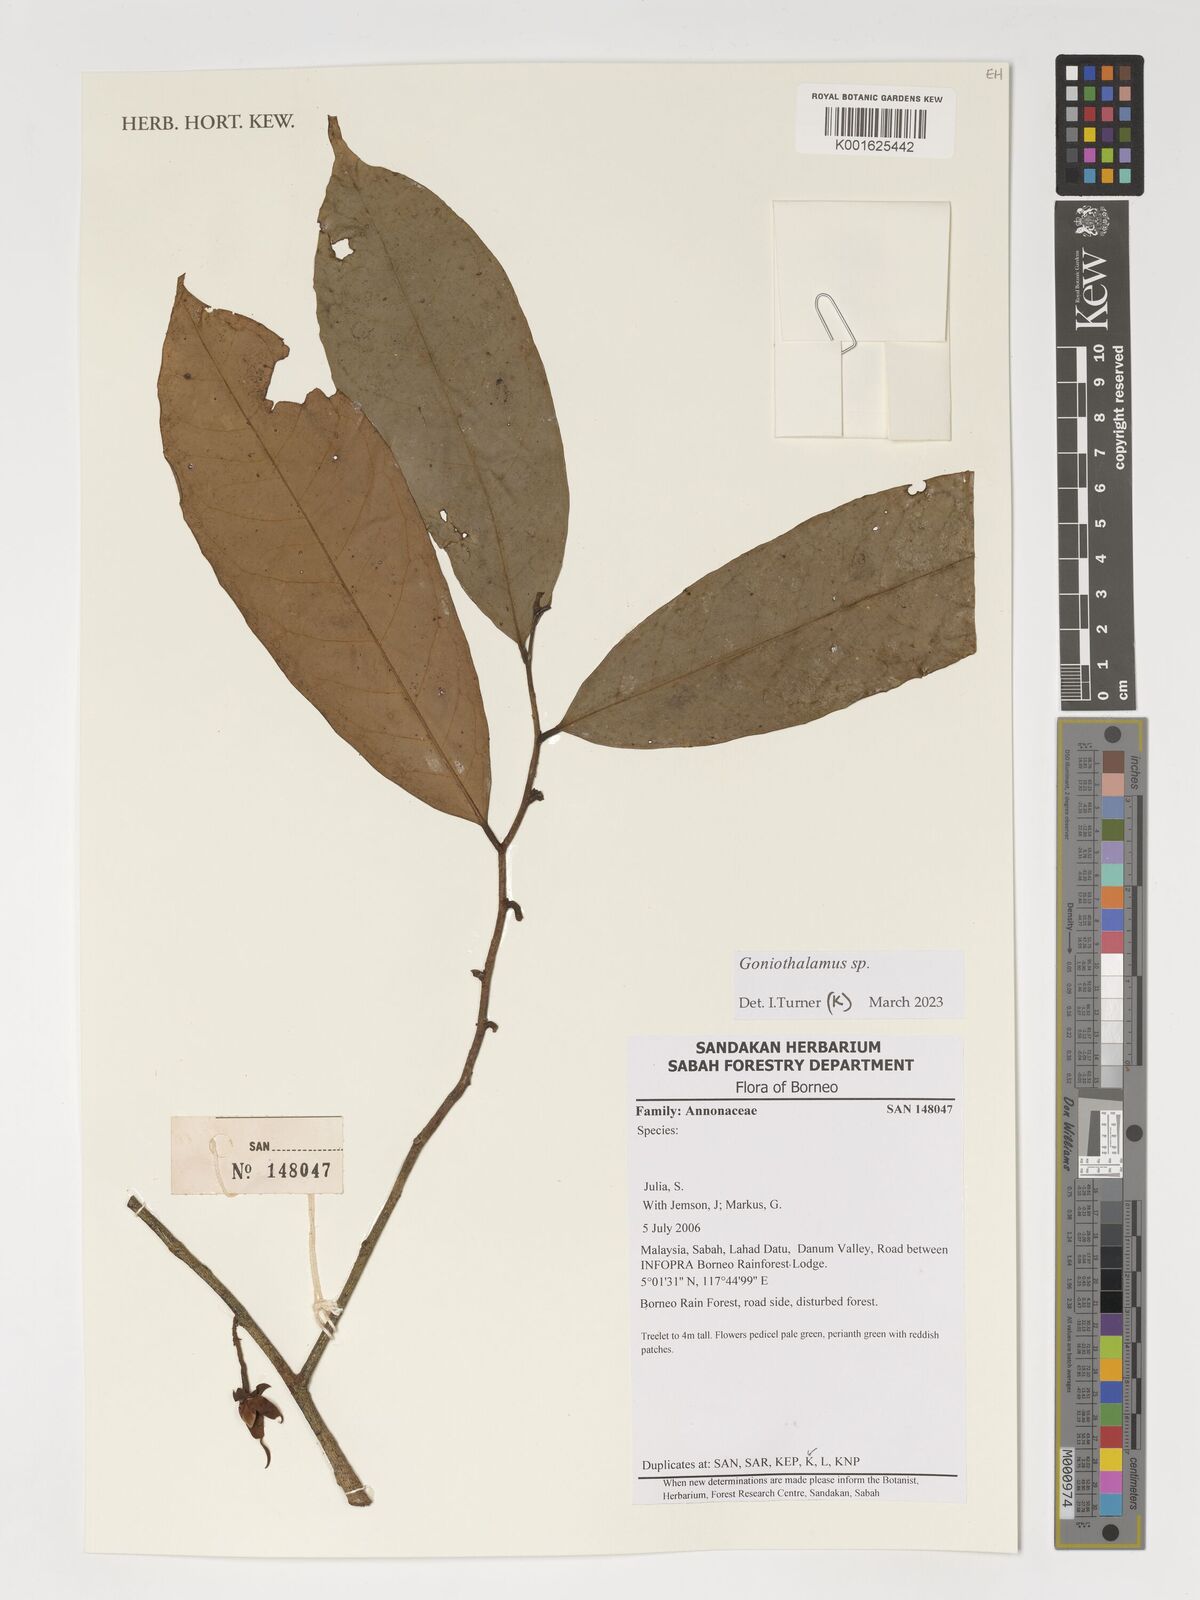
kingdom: Plantae
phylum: Tracheophyta
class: Magnoliopsida
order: Magnoliales
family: Annonaceae
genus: Goniothalamus
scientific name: Goniothalamus
